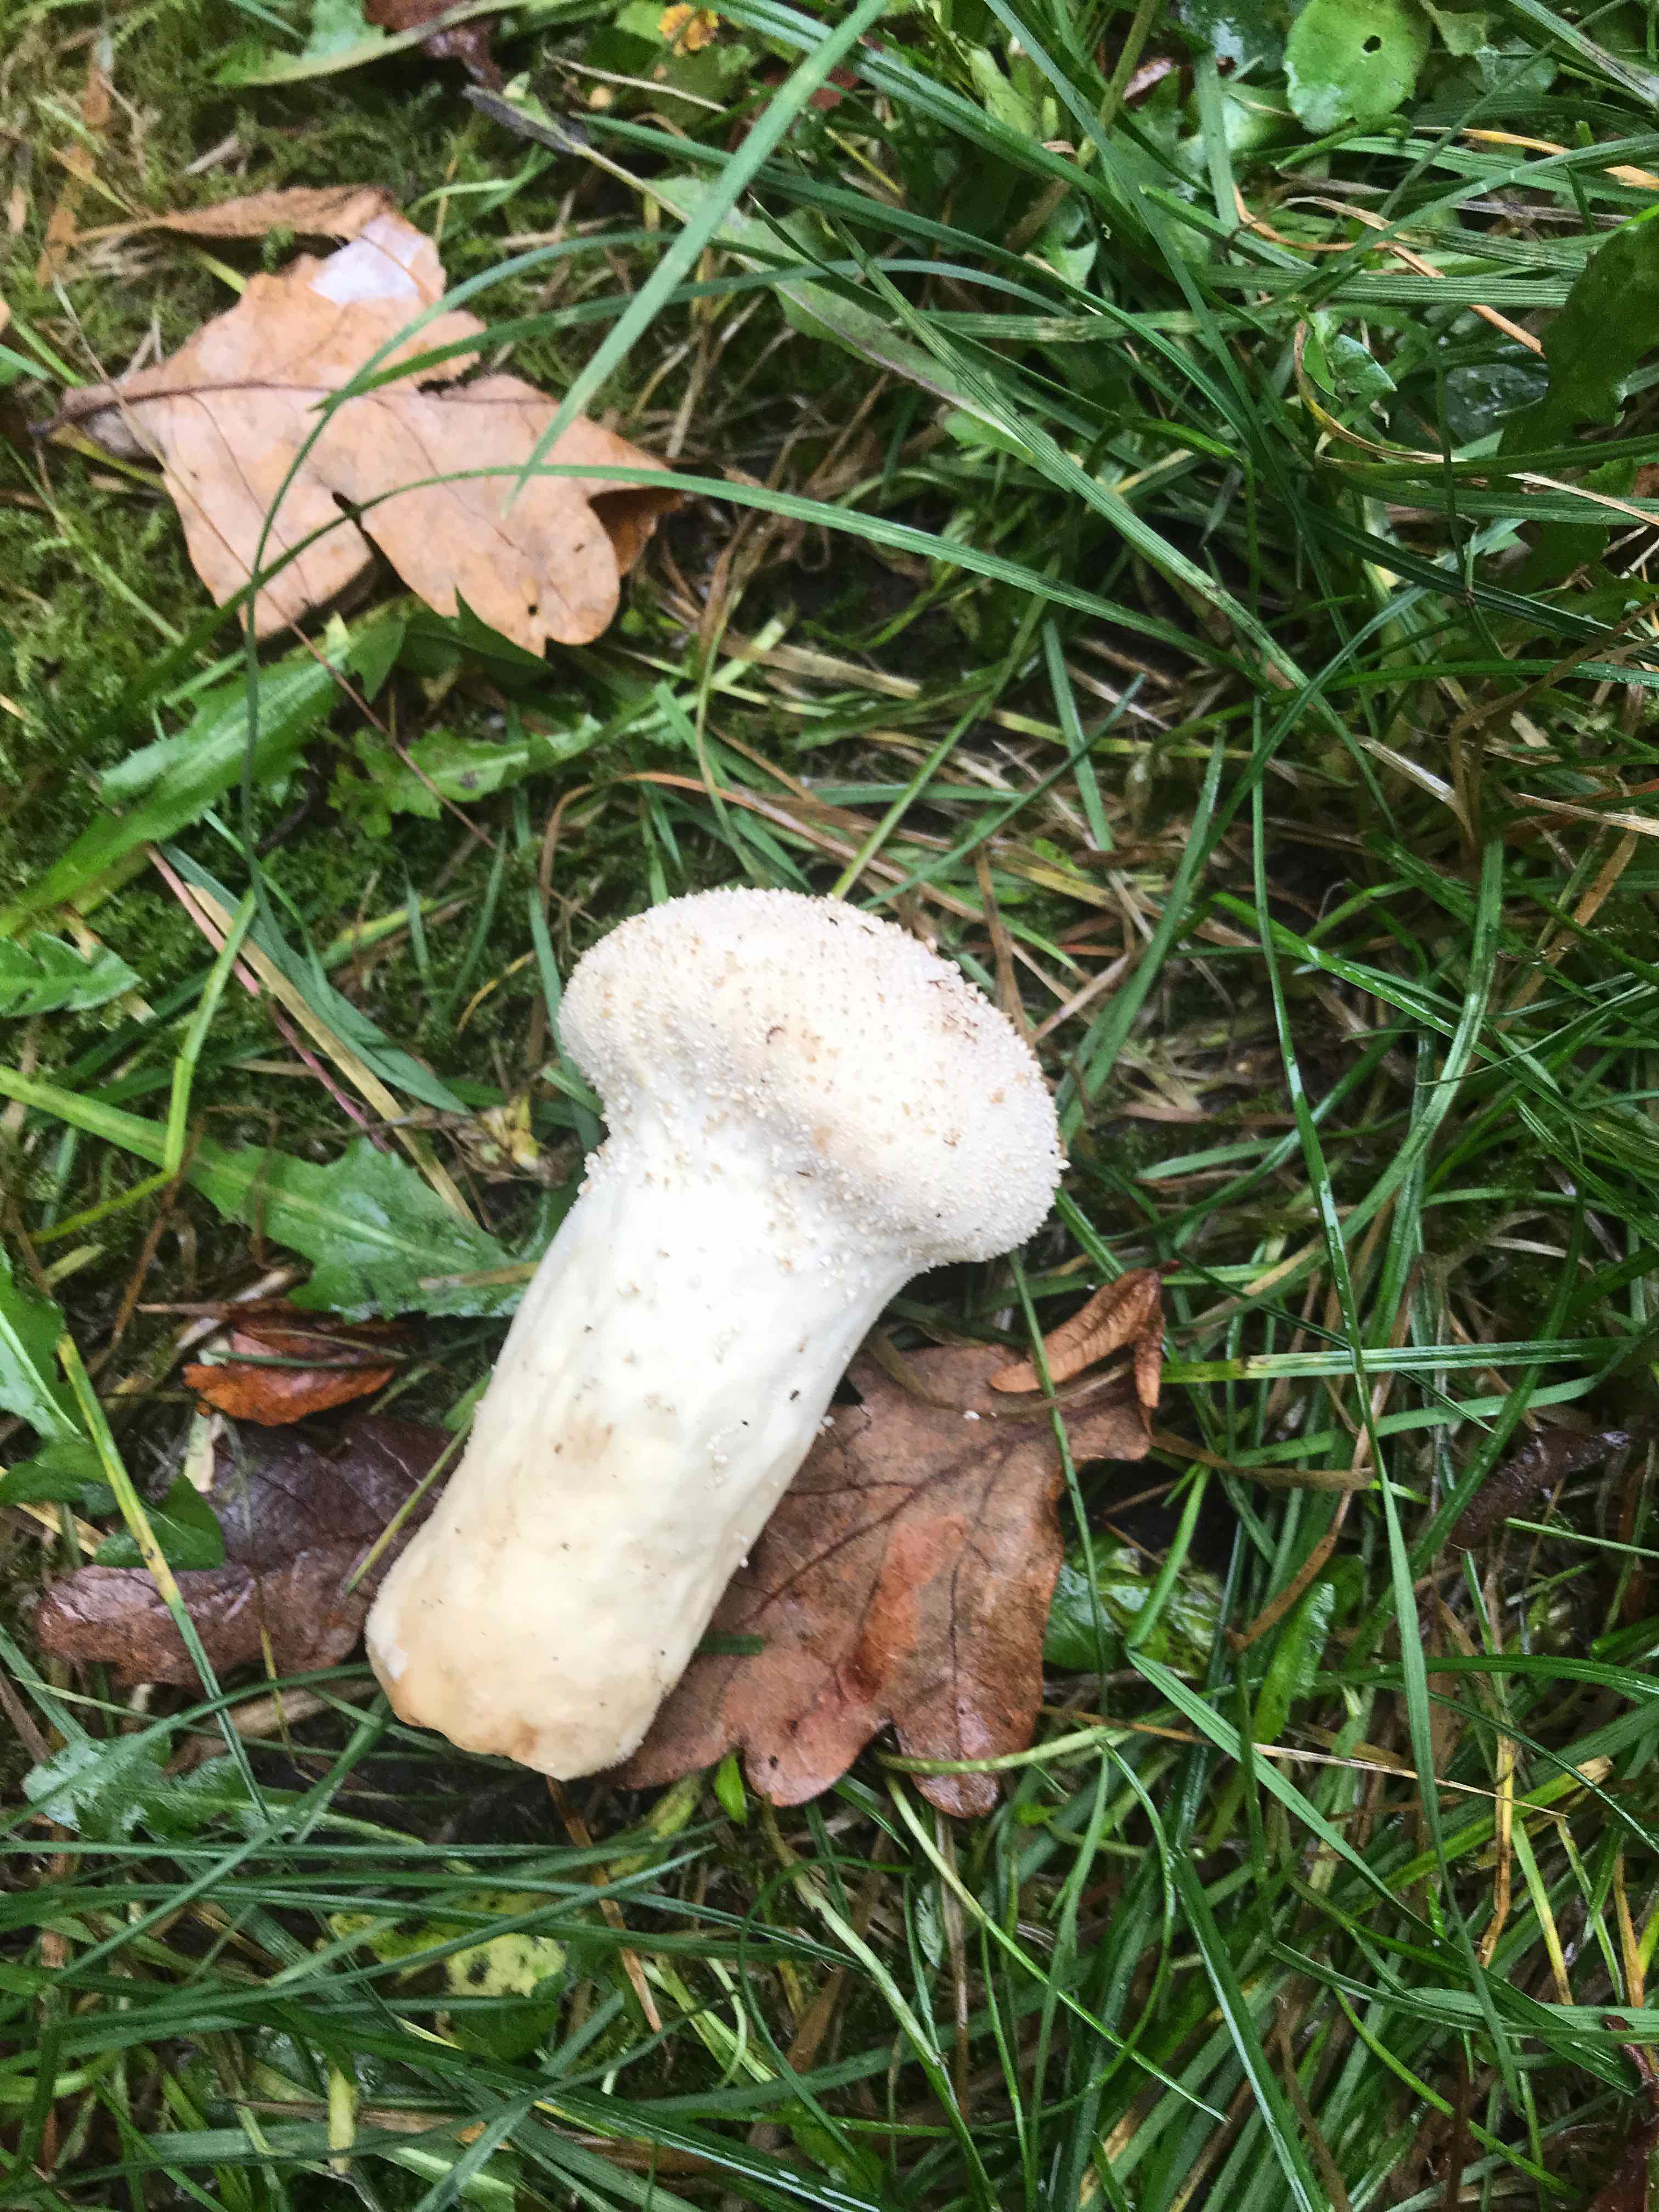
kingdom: Fungi
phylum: Basidiomycota
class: Agaricomycetes
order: Agaricales
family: Agaricaceae
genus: Lycoperdon
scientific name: Lycoperdon
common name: støvbold
